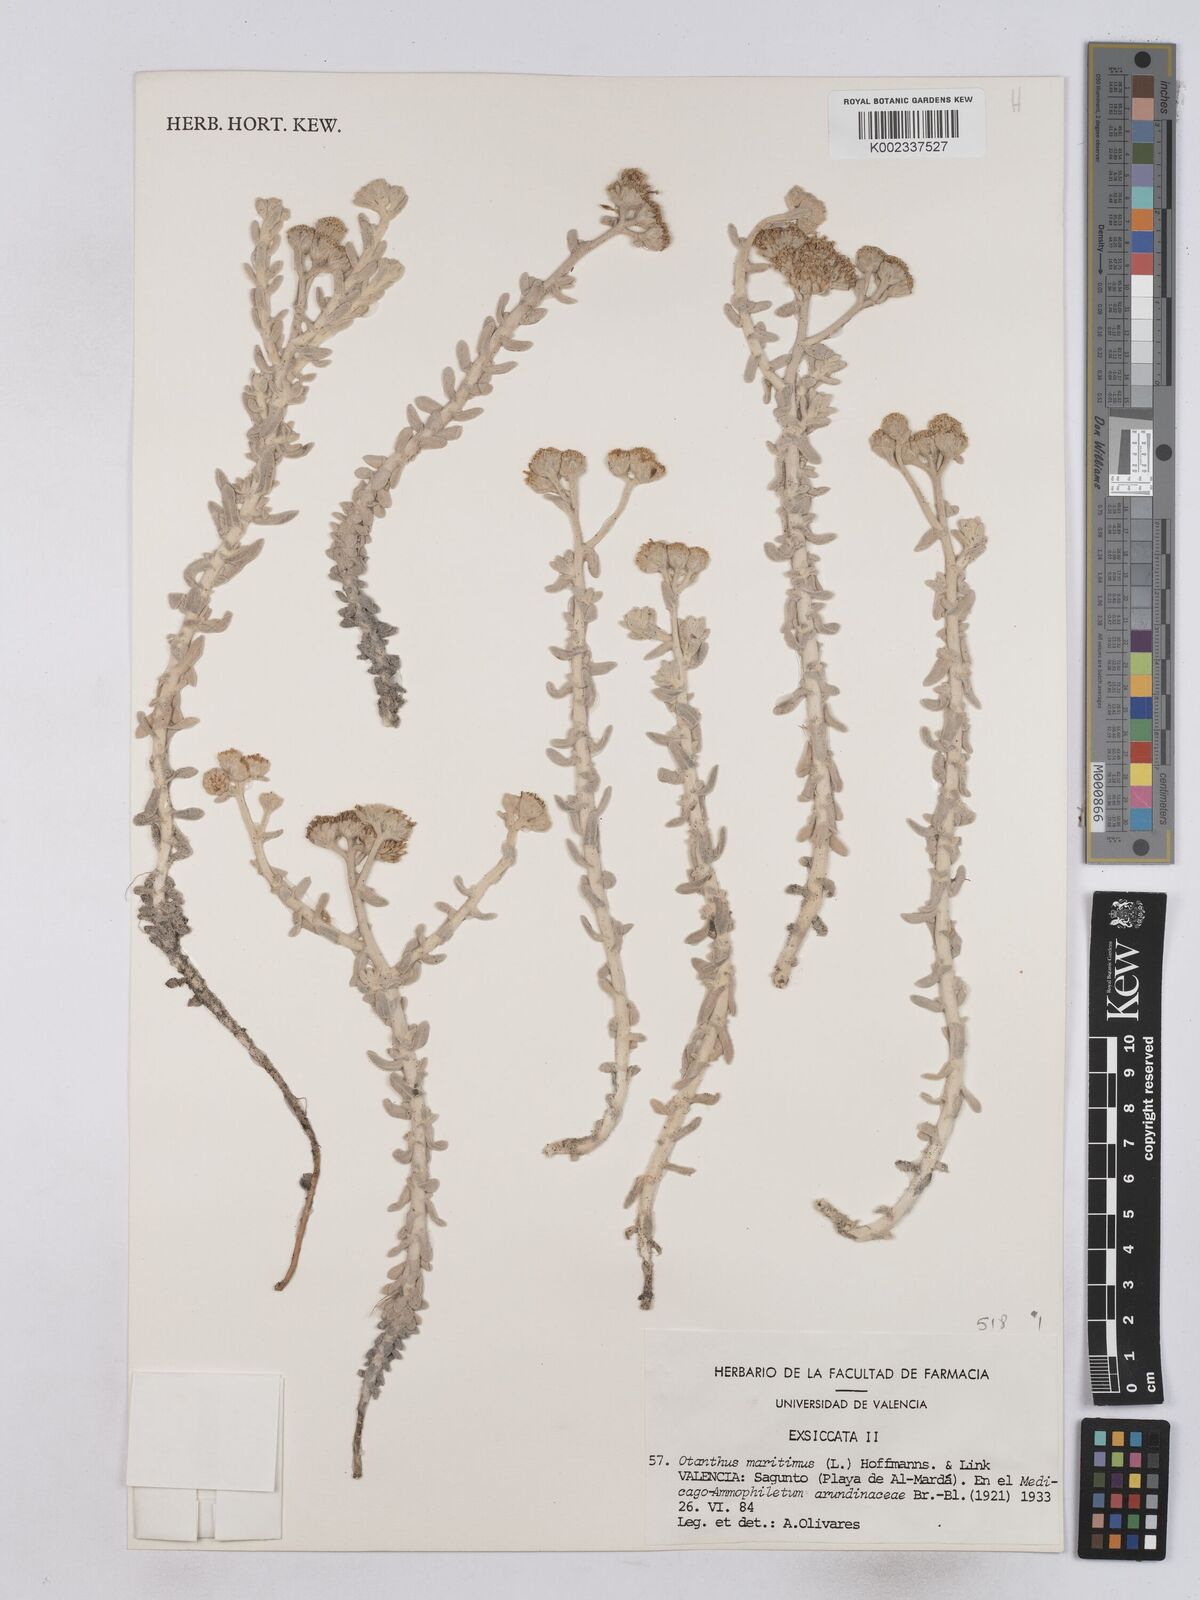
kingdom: Plantae
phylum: Tracheophyta
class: Magnoliopsida
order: Asterales
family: Asteraceae
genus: Achillea
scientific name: Achillea maritima
